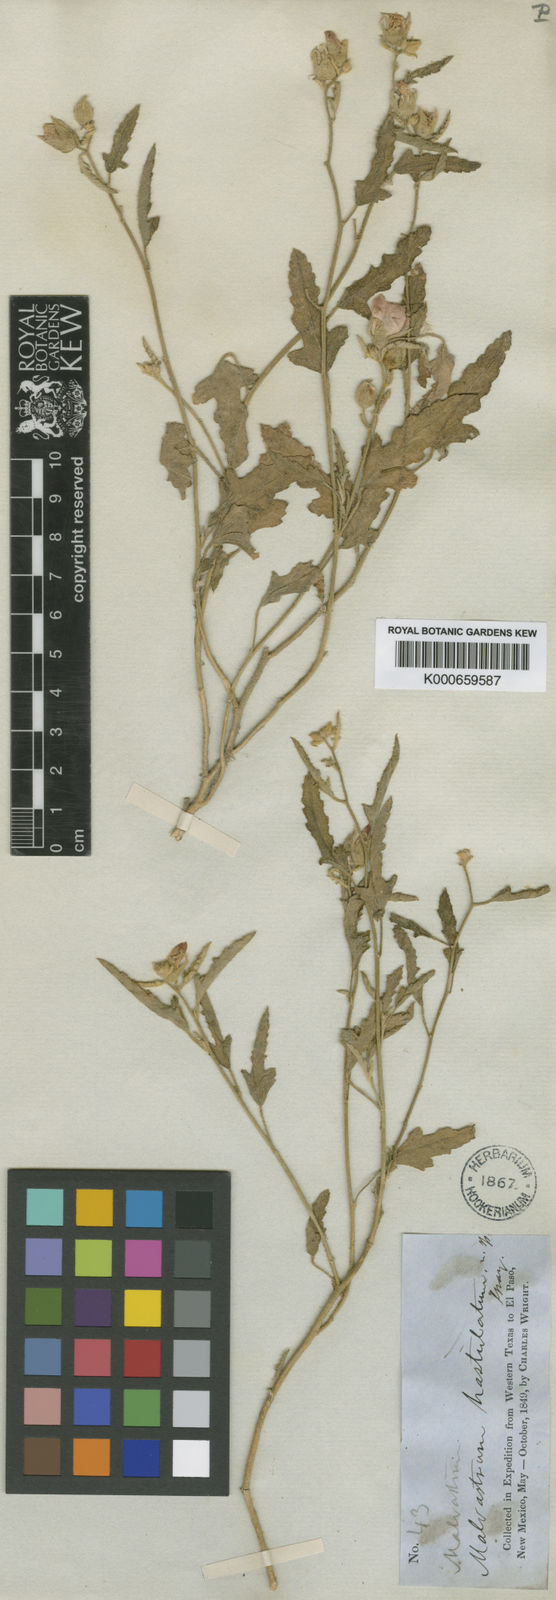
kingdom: Plantae
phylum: Tracheophyta
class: Magnoliopsida
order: Malvales
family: Malvaceae
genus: Sphaeralcea
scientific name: Sphaeralcea hastulata
